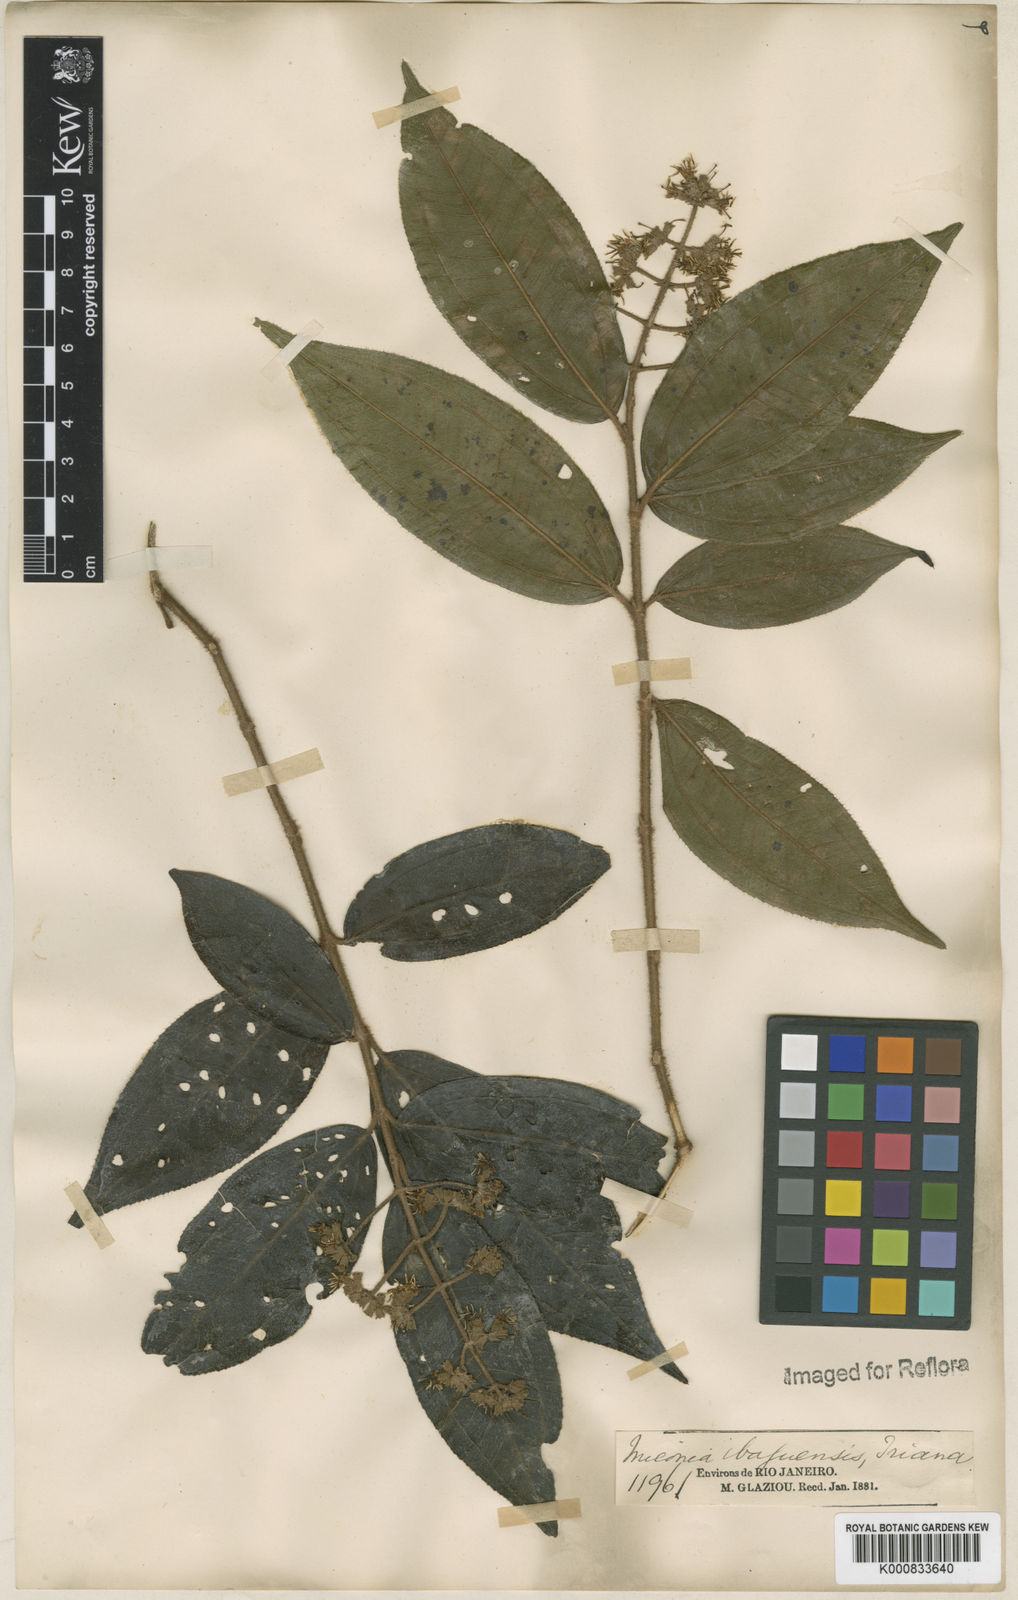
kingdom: Plantae
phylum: Tracheophyta
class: Magnoliopsida
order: Myrtales
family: Melastomataceae
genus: Miconia
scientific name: Miconia ibaguensis
